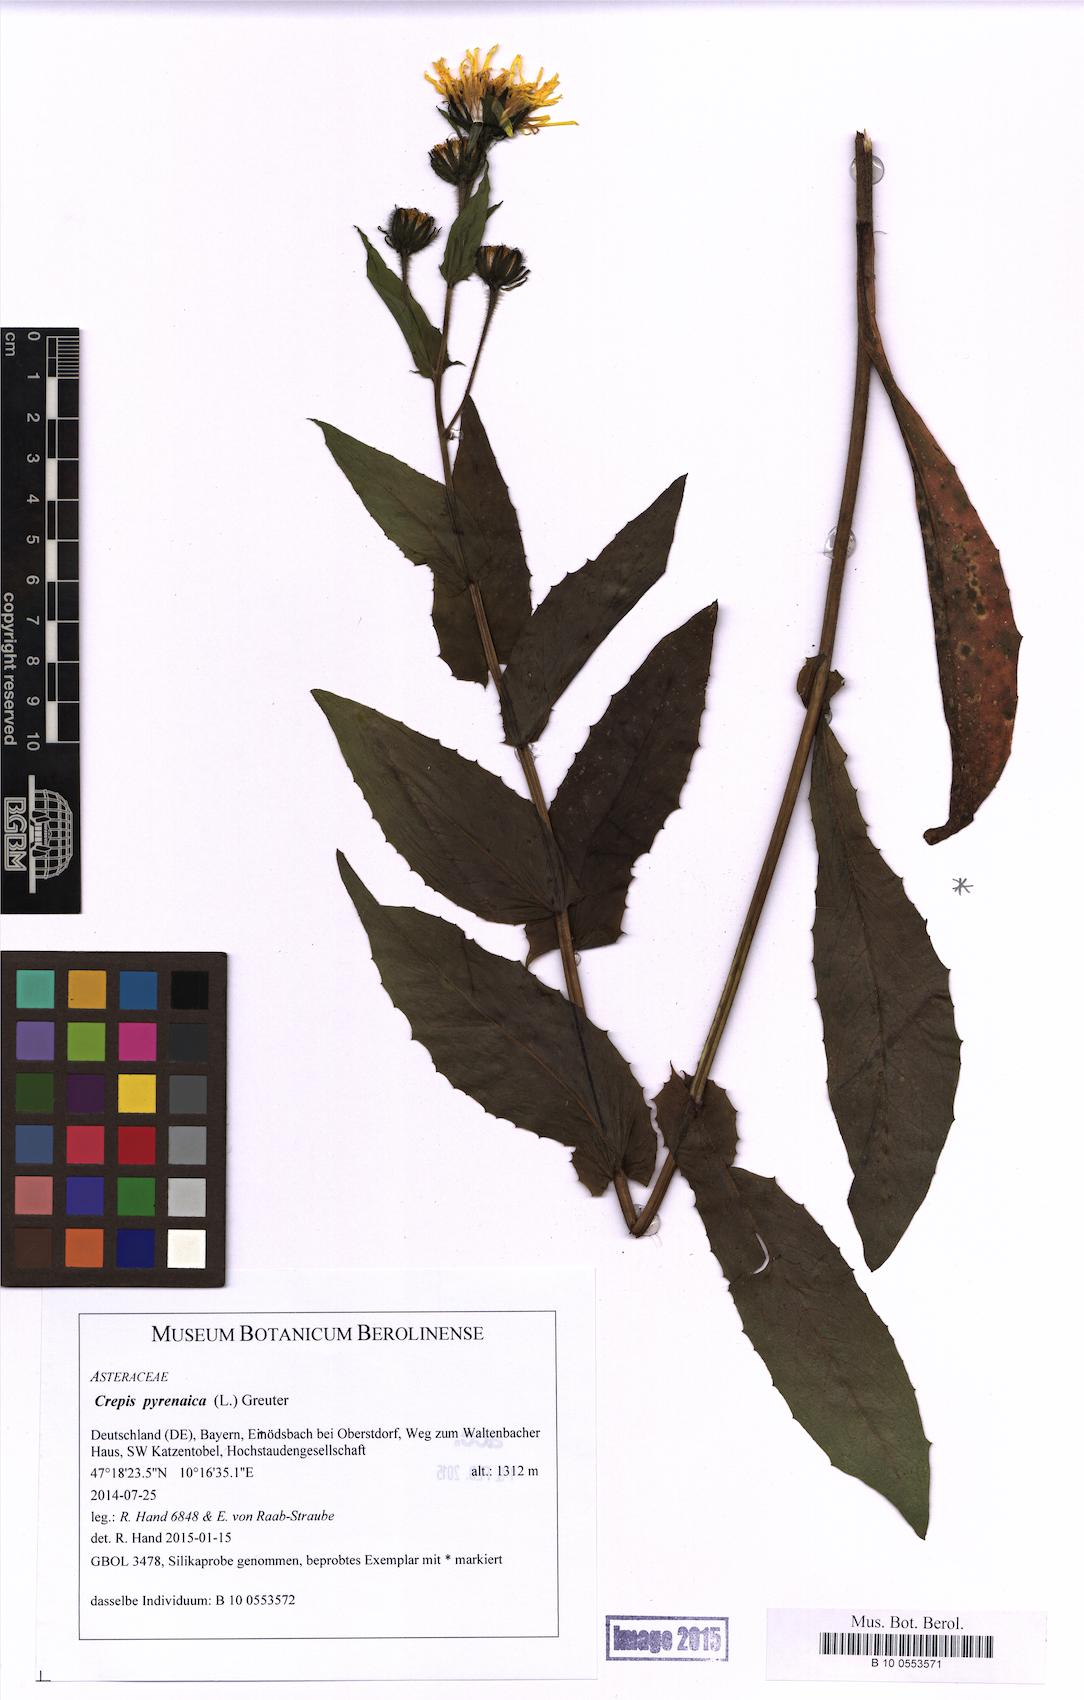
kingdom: Plantae
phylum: Tracheophyta
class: Magnoliopsida
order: Asterales
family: Asteraceae
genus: Crepis
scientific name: Crepis pyrenaica
